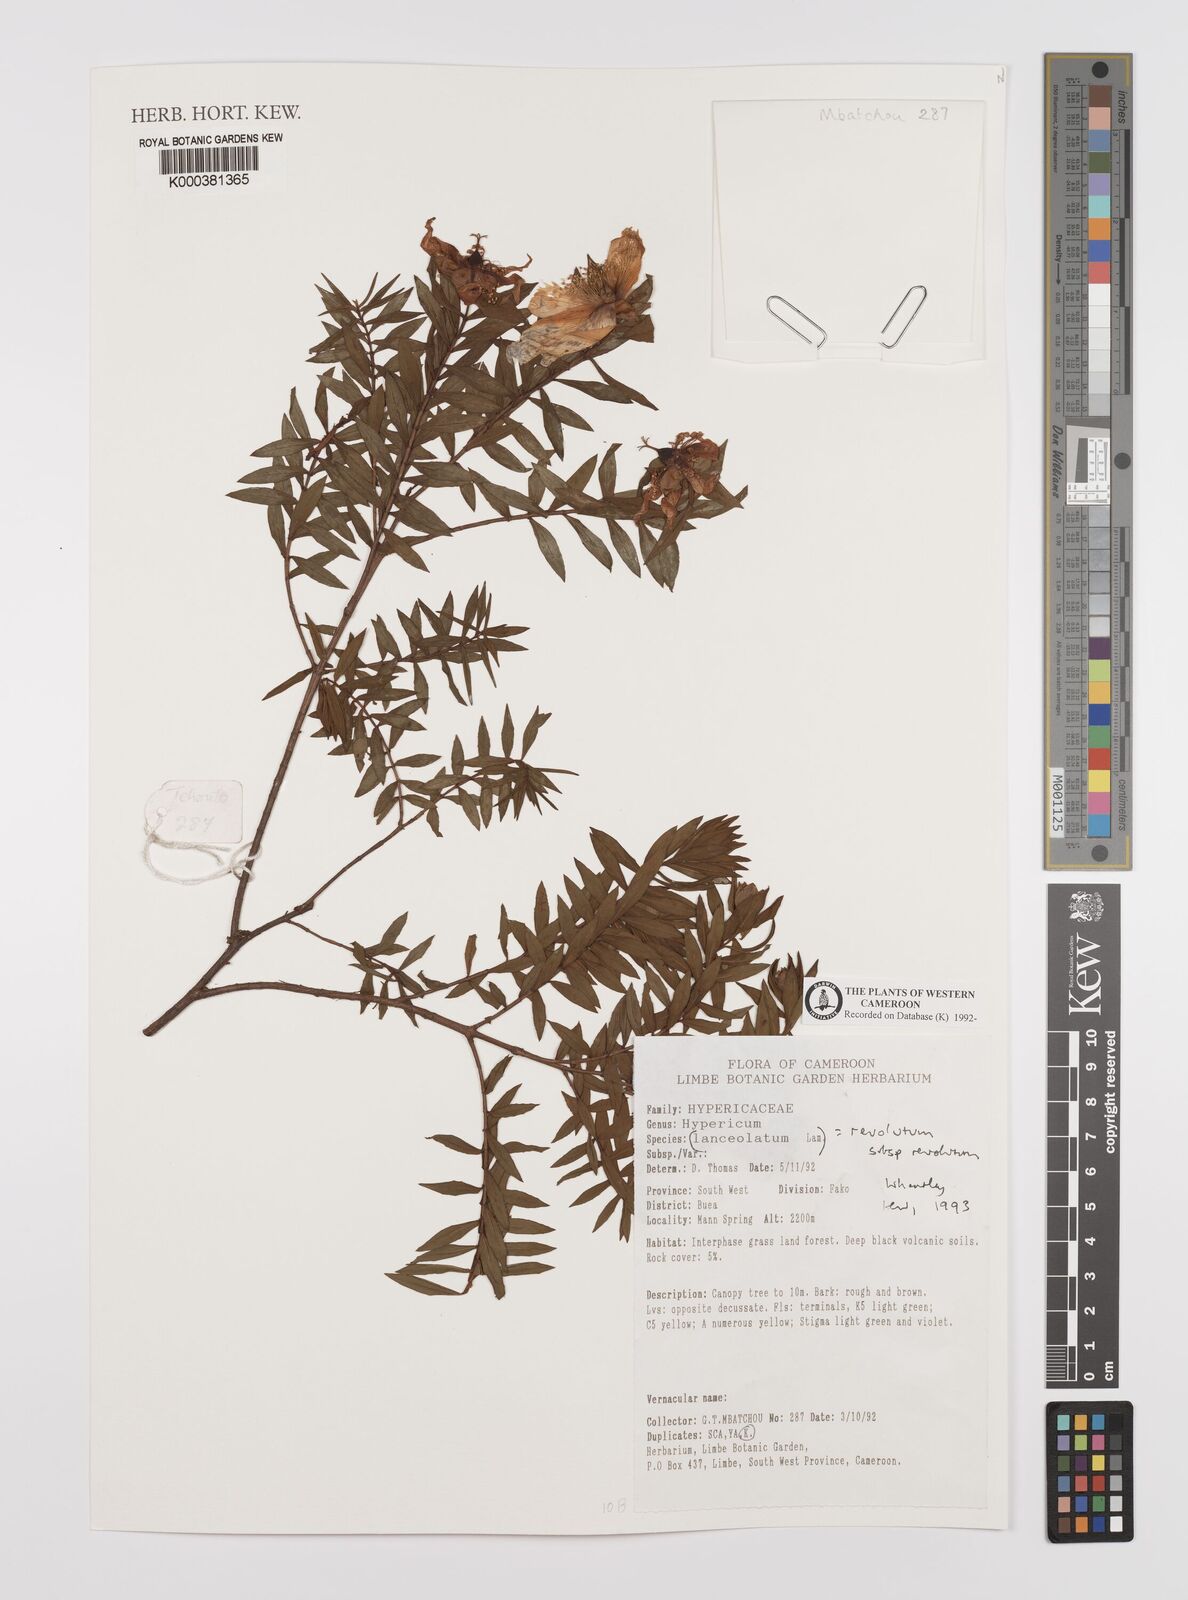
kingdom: Plantae
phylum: Tracheophyta
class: Magnoliopsida
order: Malpighiales
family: Hypericaceae
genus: Hypericum
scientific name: Hypericum revolutum
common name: Curry bush
